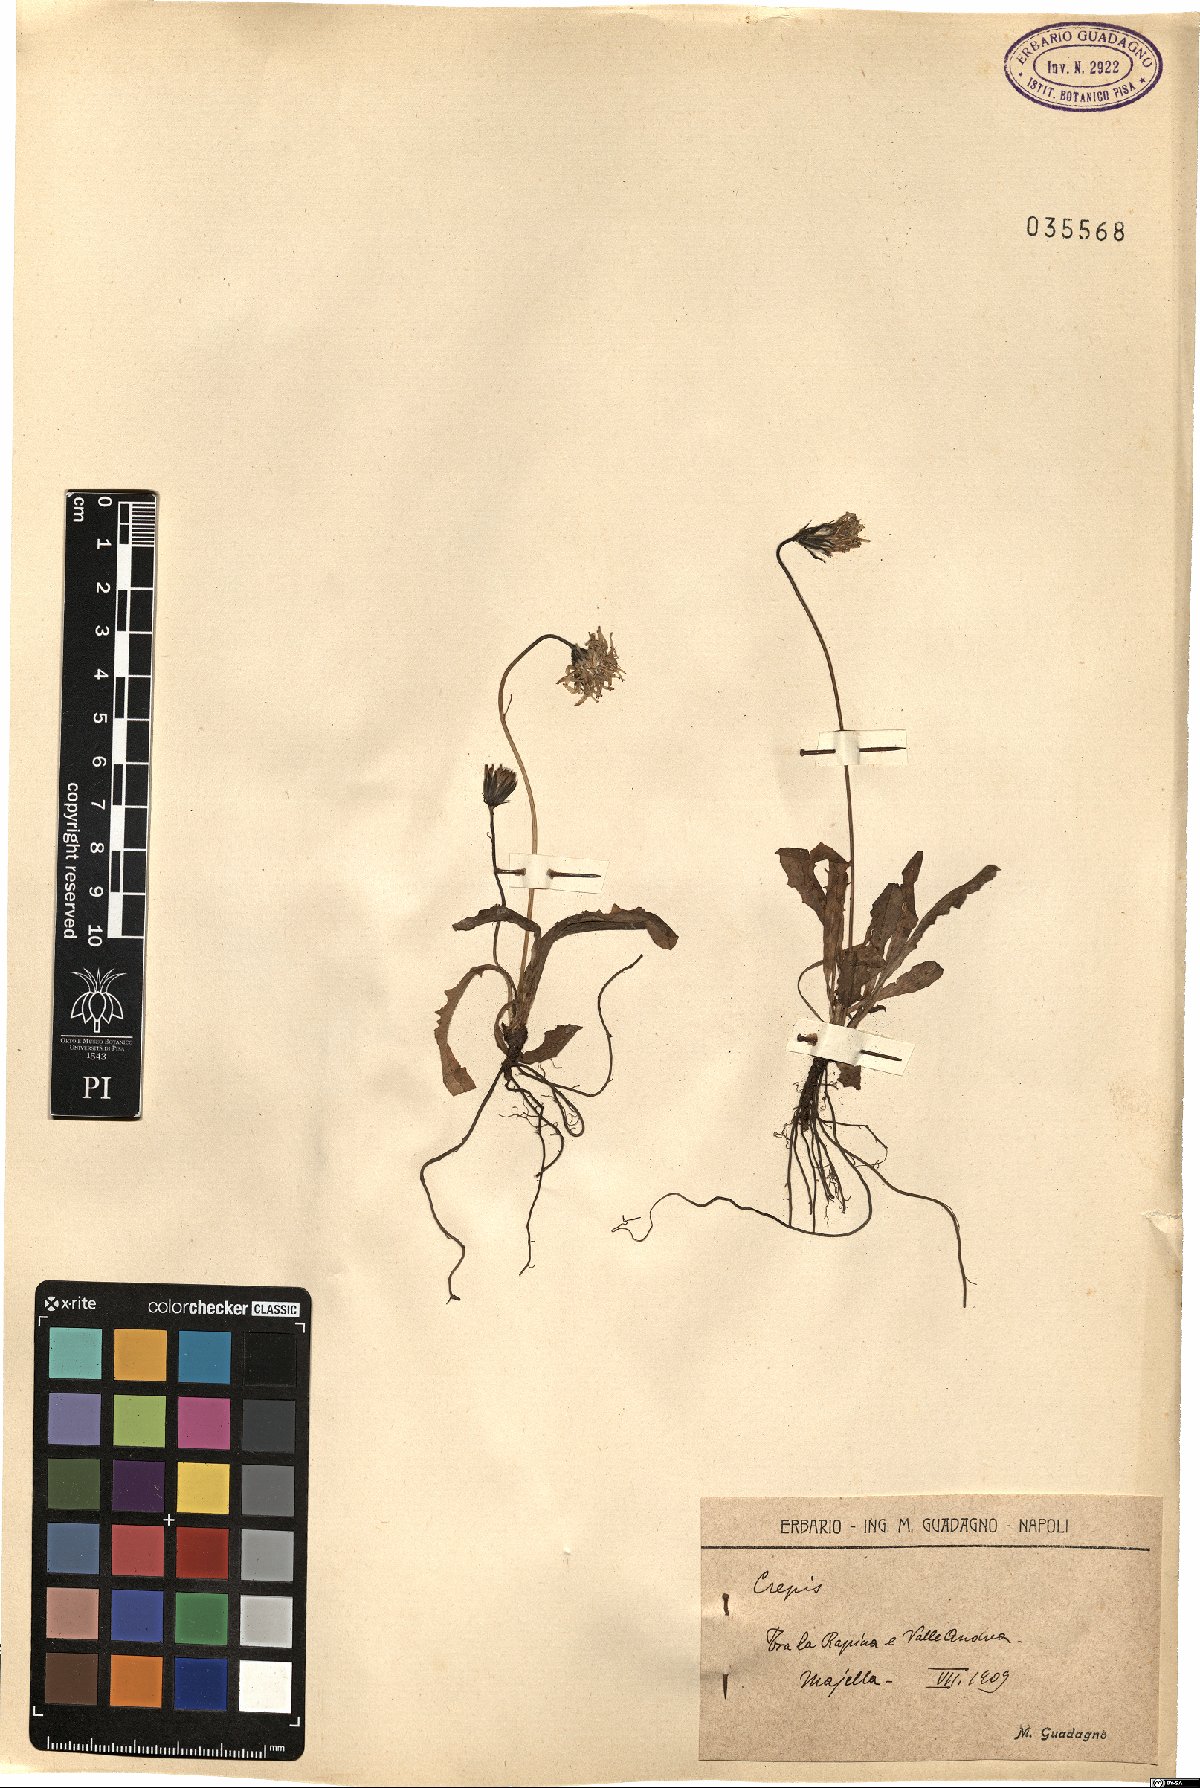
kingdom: Plantae
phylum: Tracheophyta
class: Magnoliopsida
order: Asterales
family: Asteraceae
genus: Crepis
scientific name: Crepis
